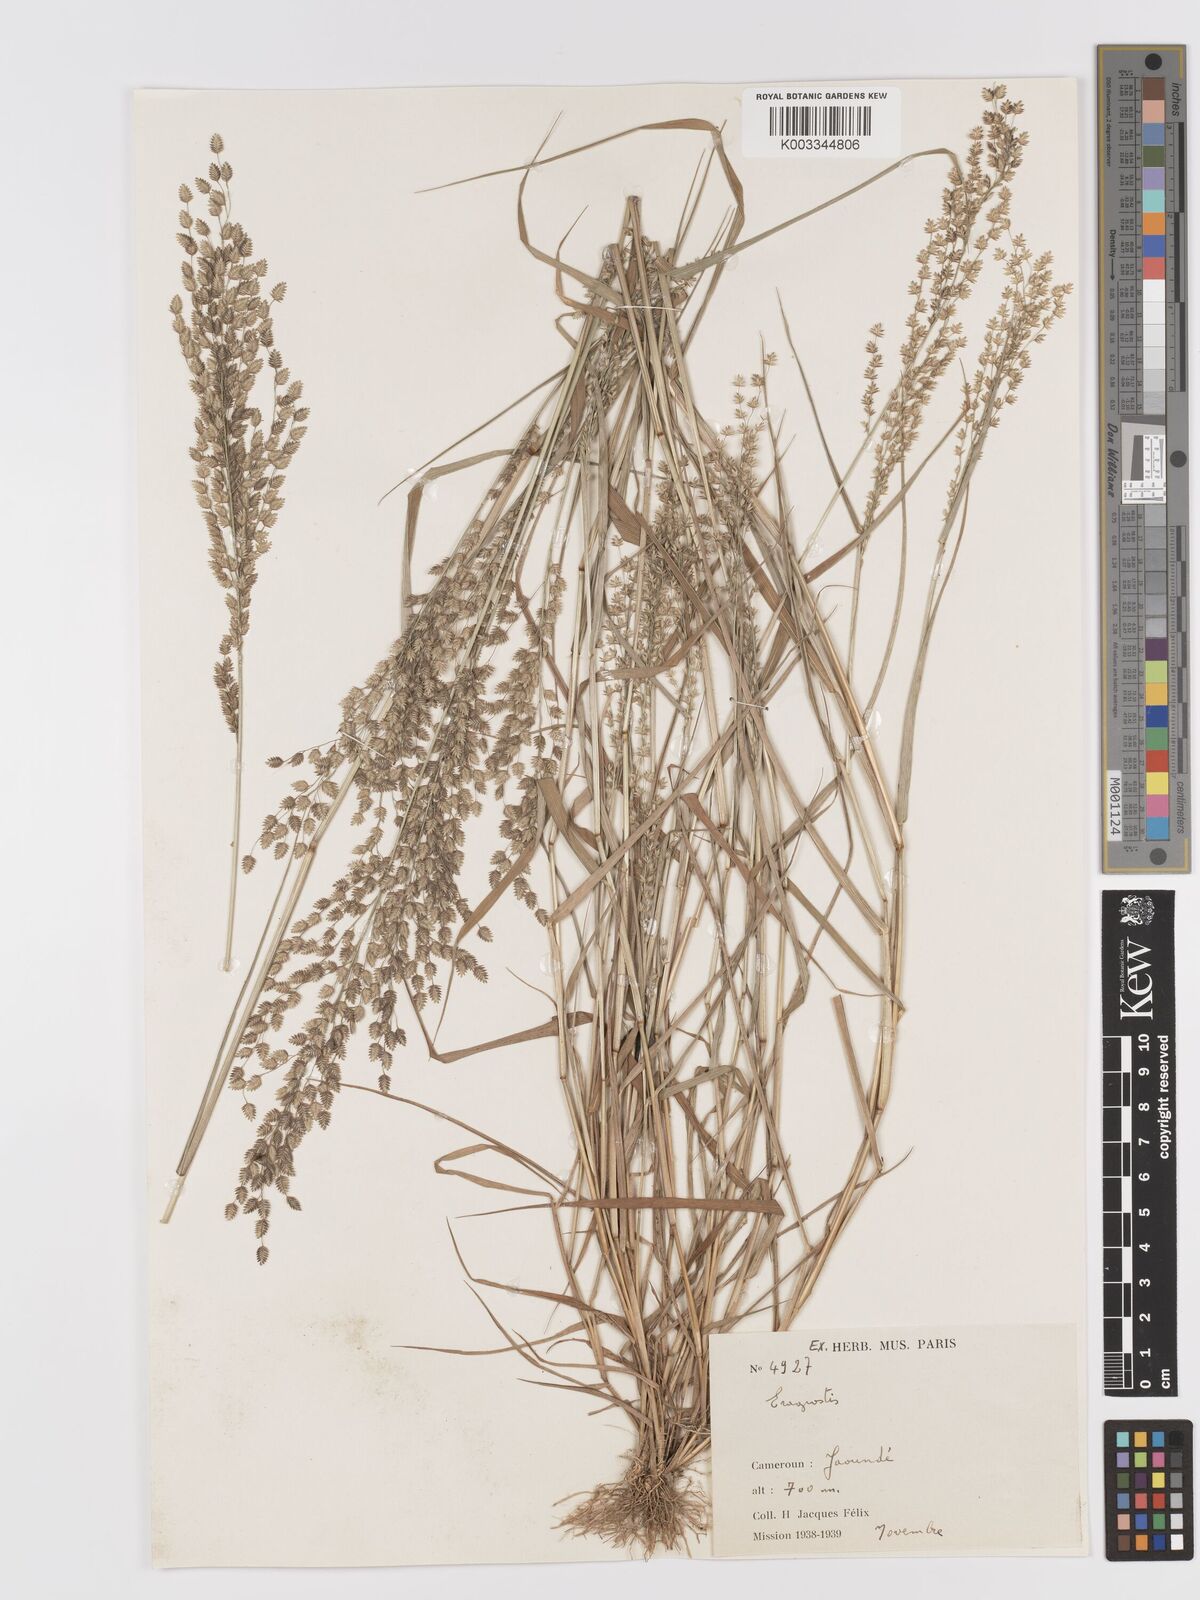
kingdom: Plantae
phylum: Tracheophyta
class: Liliopsida
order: Poales
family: Poaceae
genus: Eragrostis
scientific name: Eragrostis scotelliana
